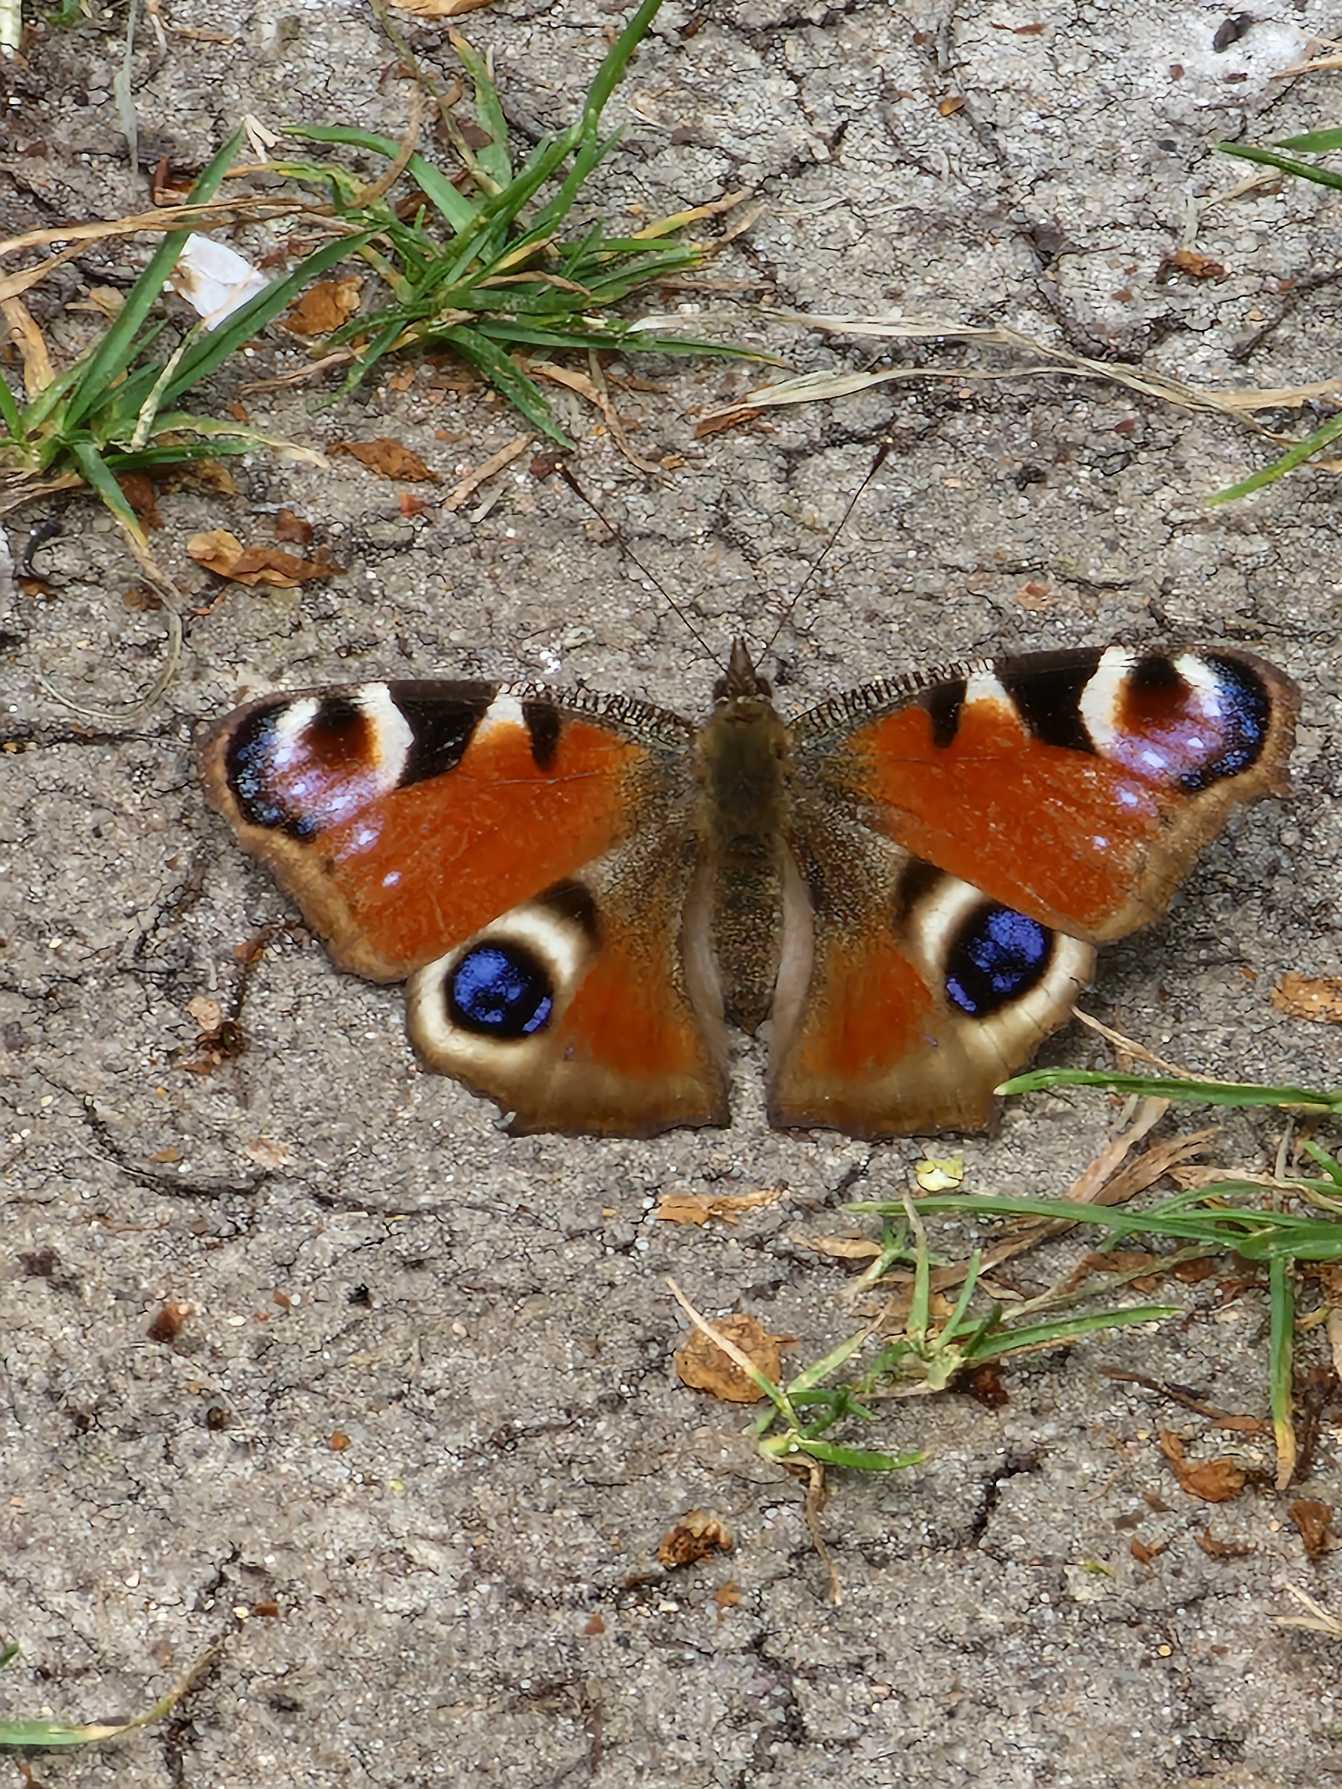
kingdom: Animalia
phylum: Arthropoda
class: Insecta
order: Lepidoptera
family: Nymphalidae
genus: Aglais
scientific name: Aglais io
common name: Dagpåfugleøje
